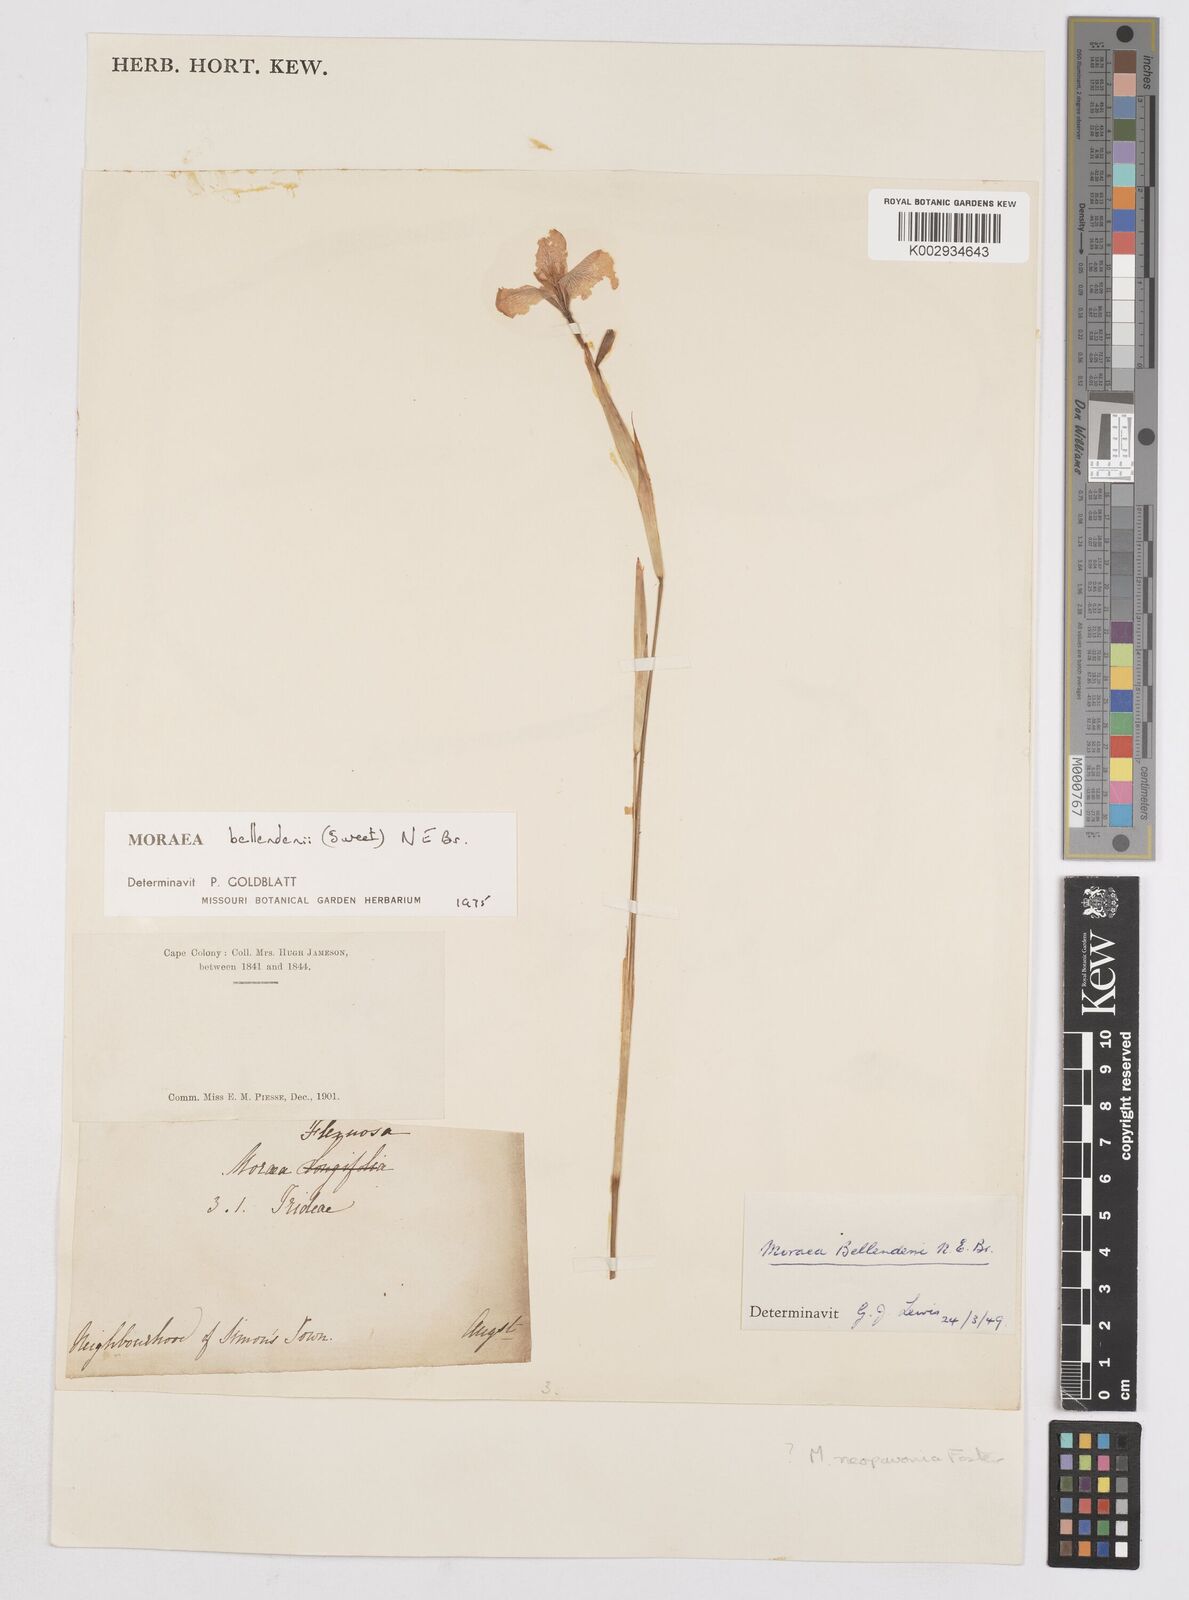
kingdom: Plantae
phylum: Tracheophyta
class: Liliopsida
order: Asparagales
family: Iridaceae
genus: Moraea
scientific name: Moraea bellendenii
